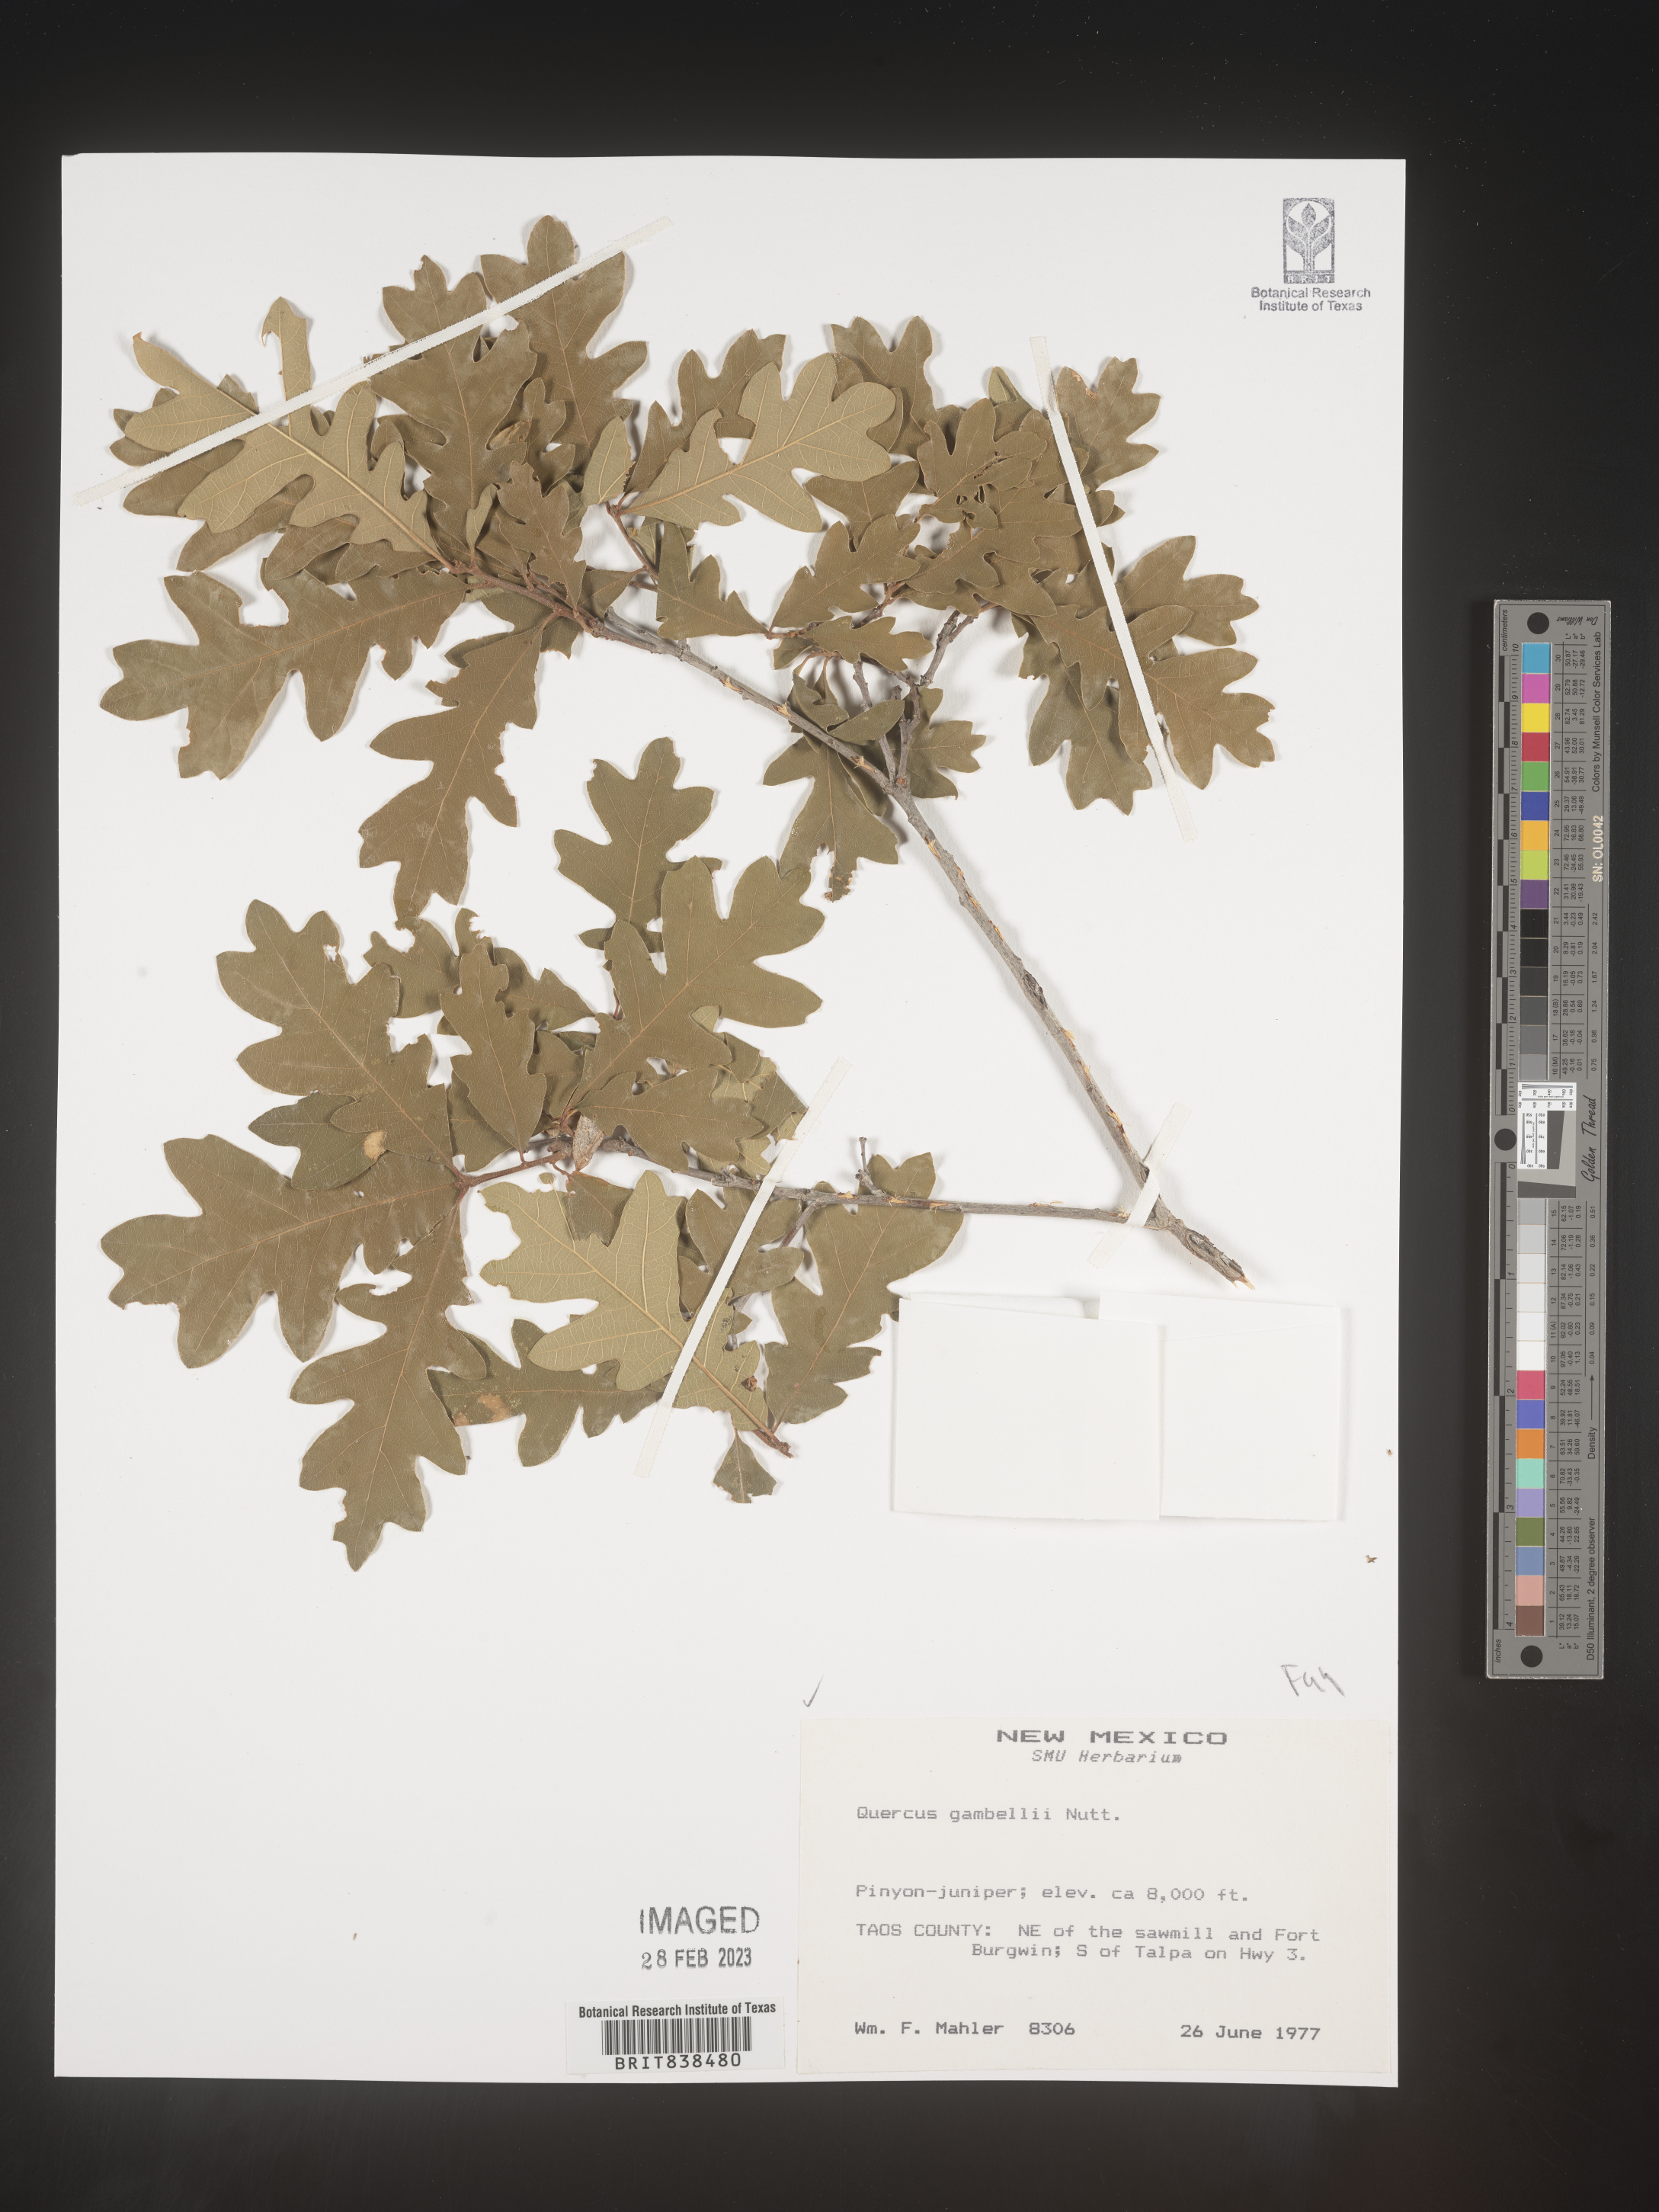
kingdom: Plantae
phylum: Tracheophyta
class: Magnoliopsida
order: Fagales
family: Fagaceae
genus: Quercus
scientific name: Quercus gambelii
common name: Gambel oak
